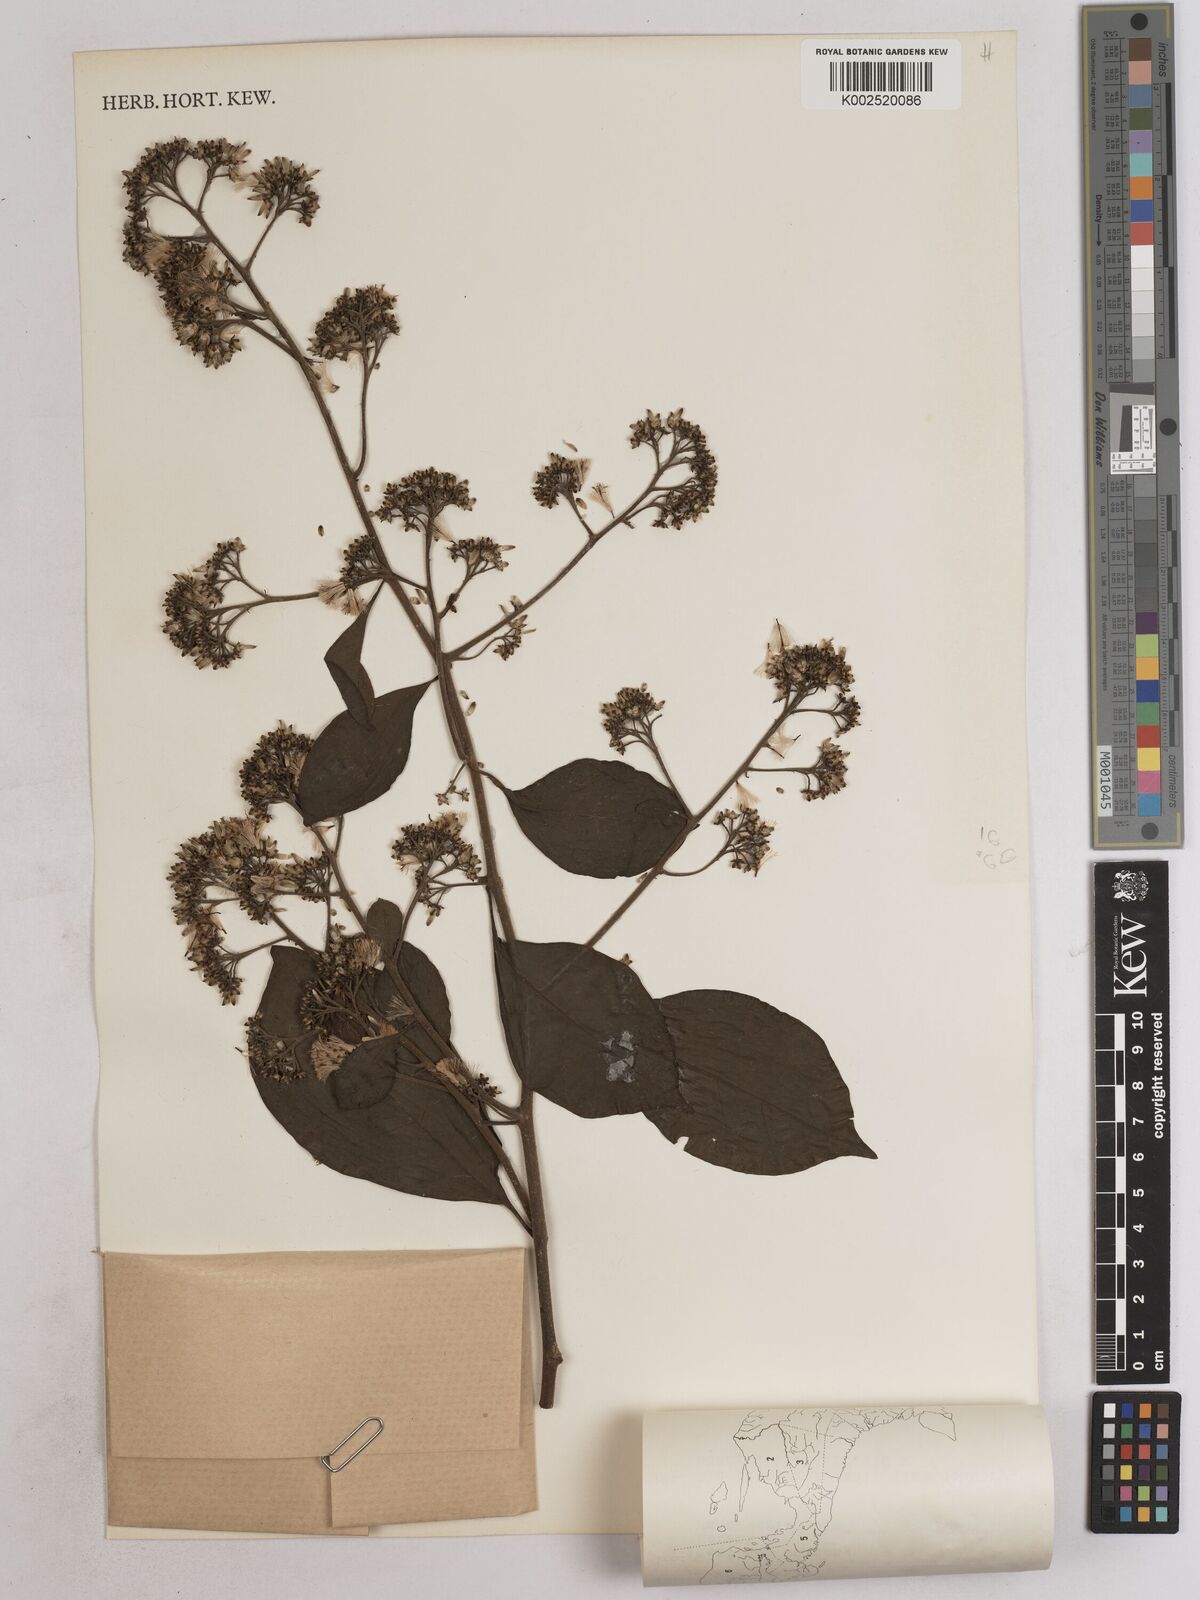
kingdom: Plantae
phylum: Tracheophyta
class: Magnoliopsida
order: Asterales
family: Asteraceae
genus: Decaneuropsis
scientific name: Decaneuropsis obovata
